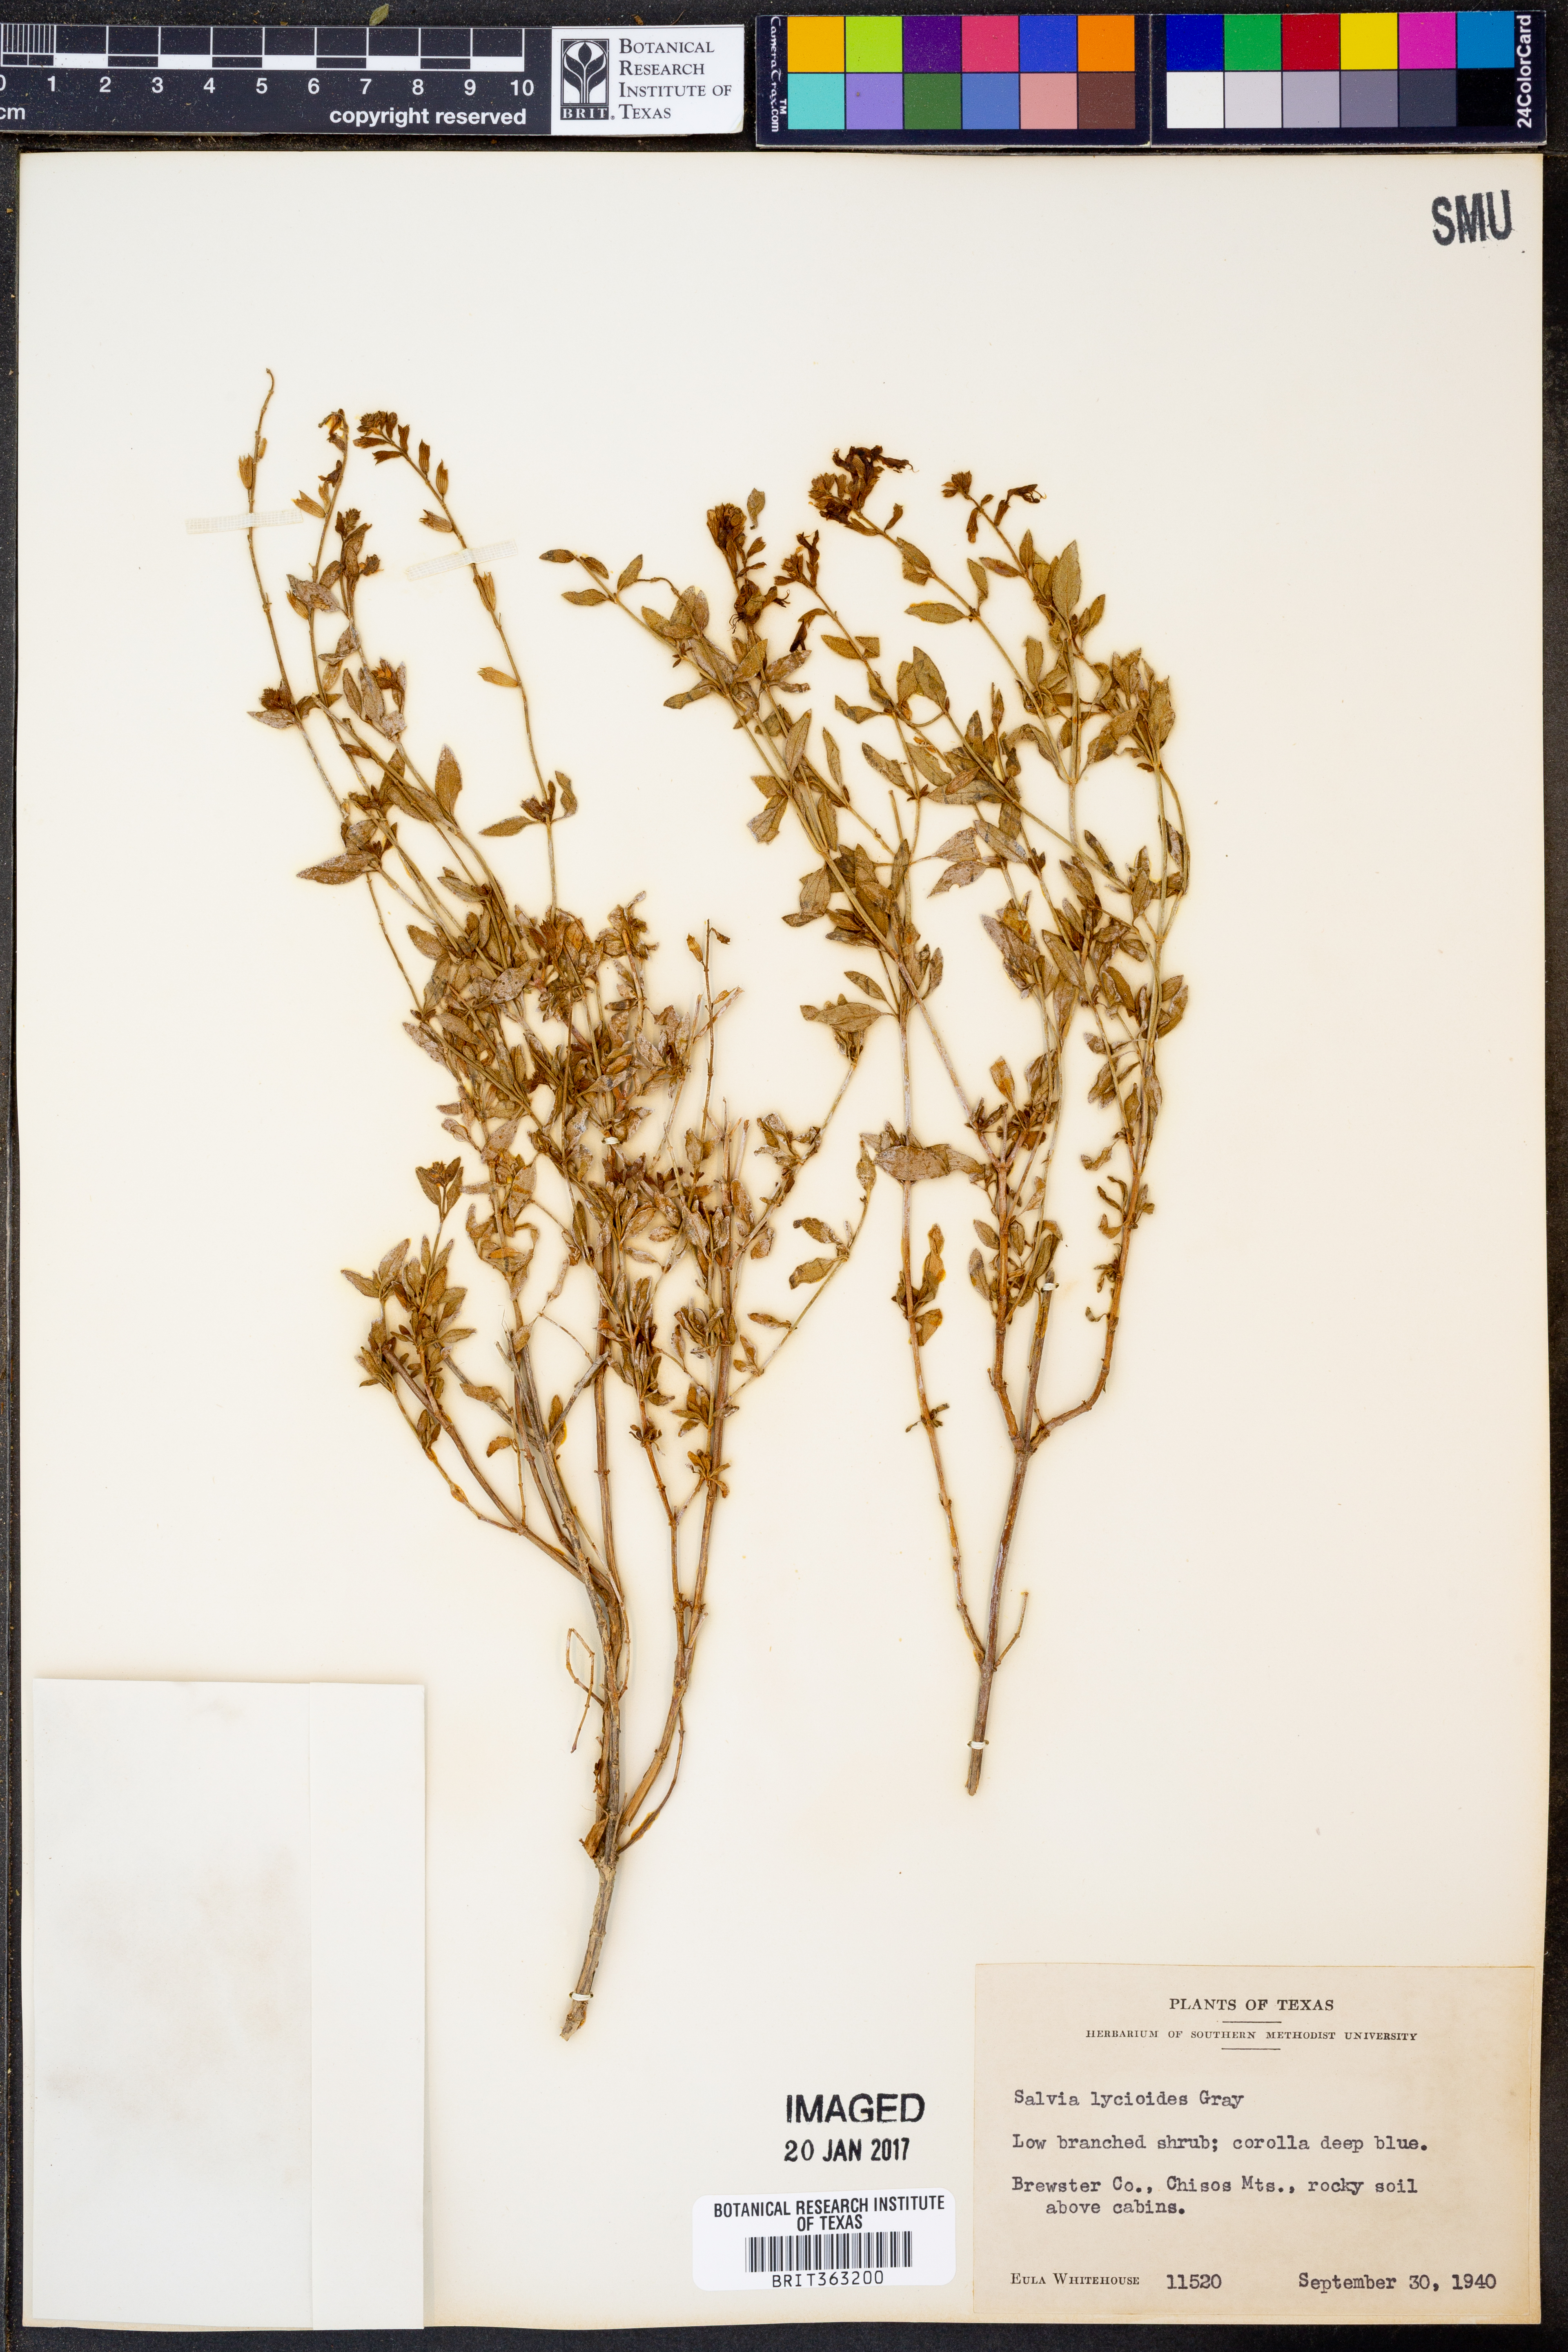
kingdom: Plantae
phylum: Tracheophyta
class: Magnoliopsida
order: Lamiales
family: Lamiaceae
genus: Salvia
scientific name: Salvia lycioides
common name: Canyon sage
